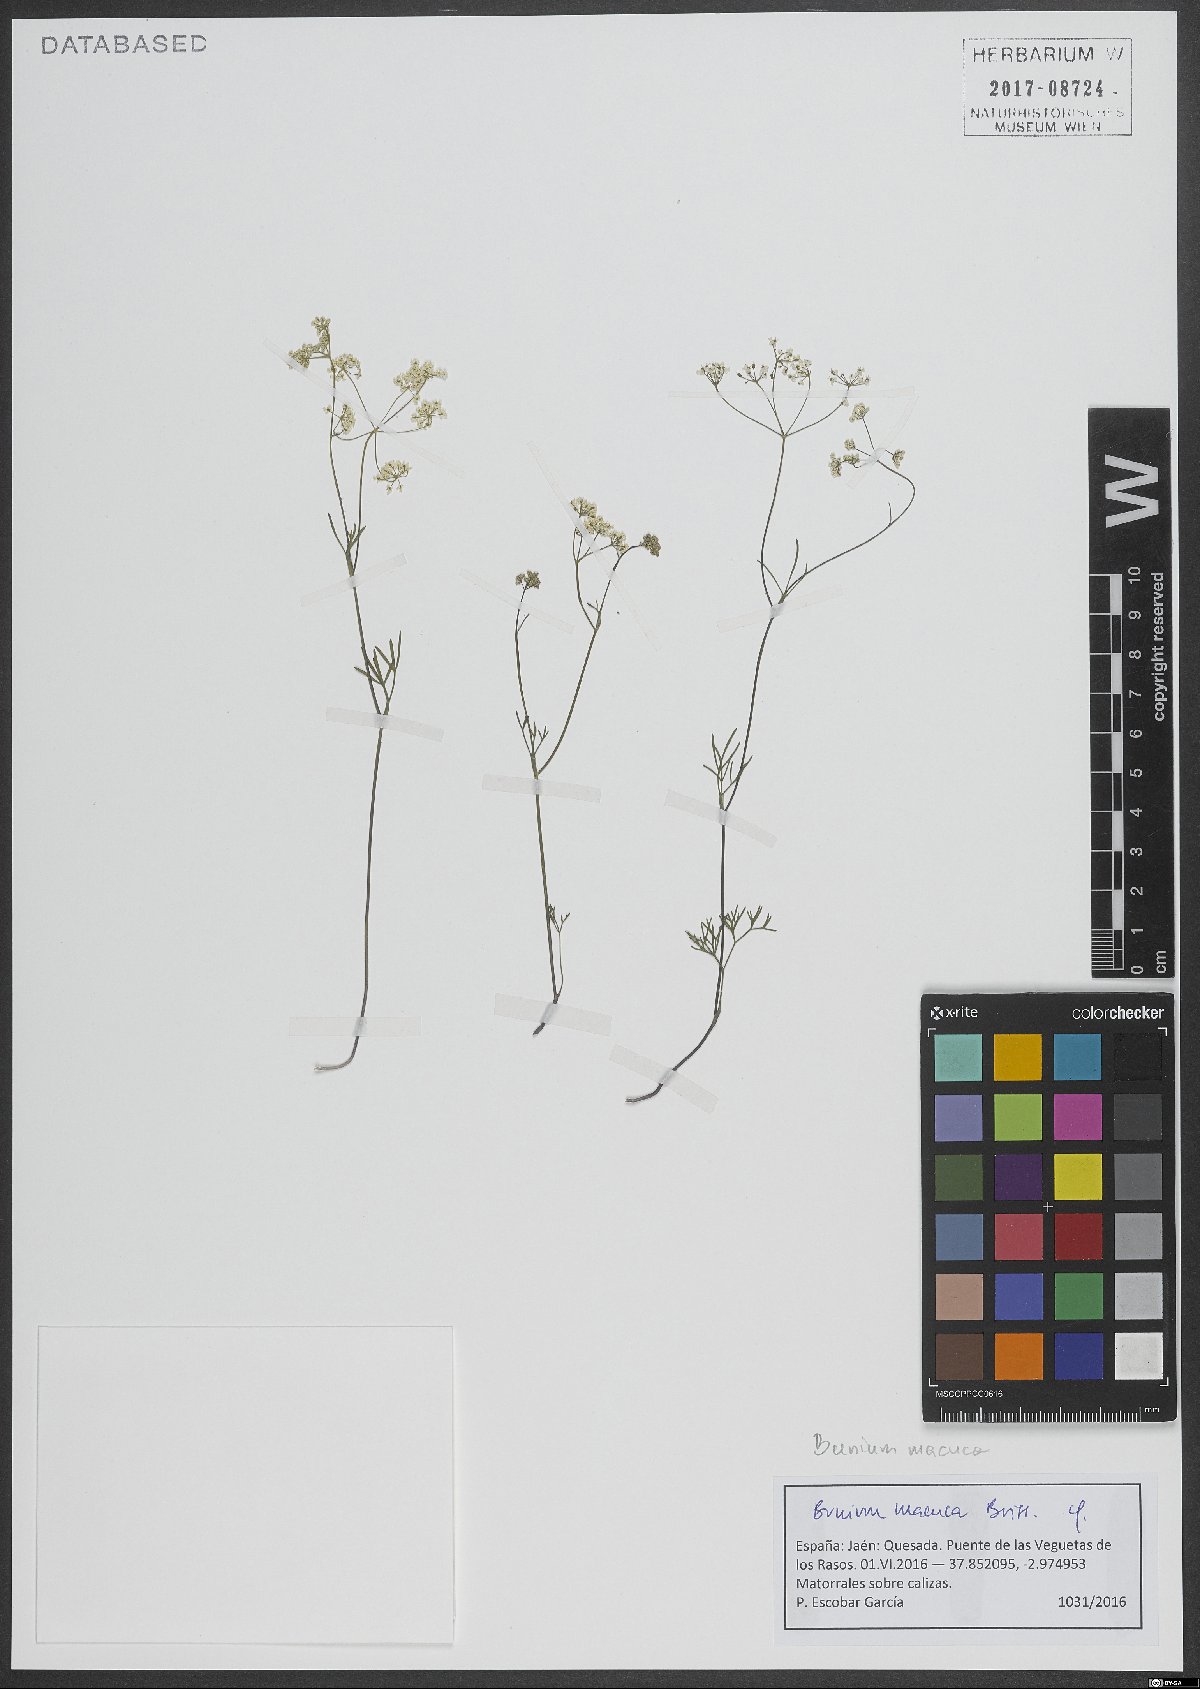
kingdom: Plantae
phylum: Tracheophyta
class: Magnoliopsida
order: Apiales
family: Apiaceae
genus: Bunium
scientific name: Bunium macuca
